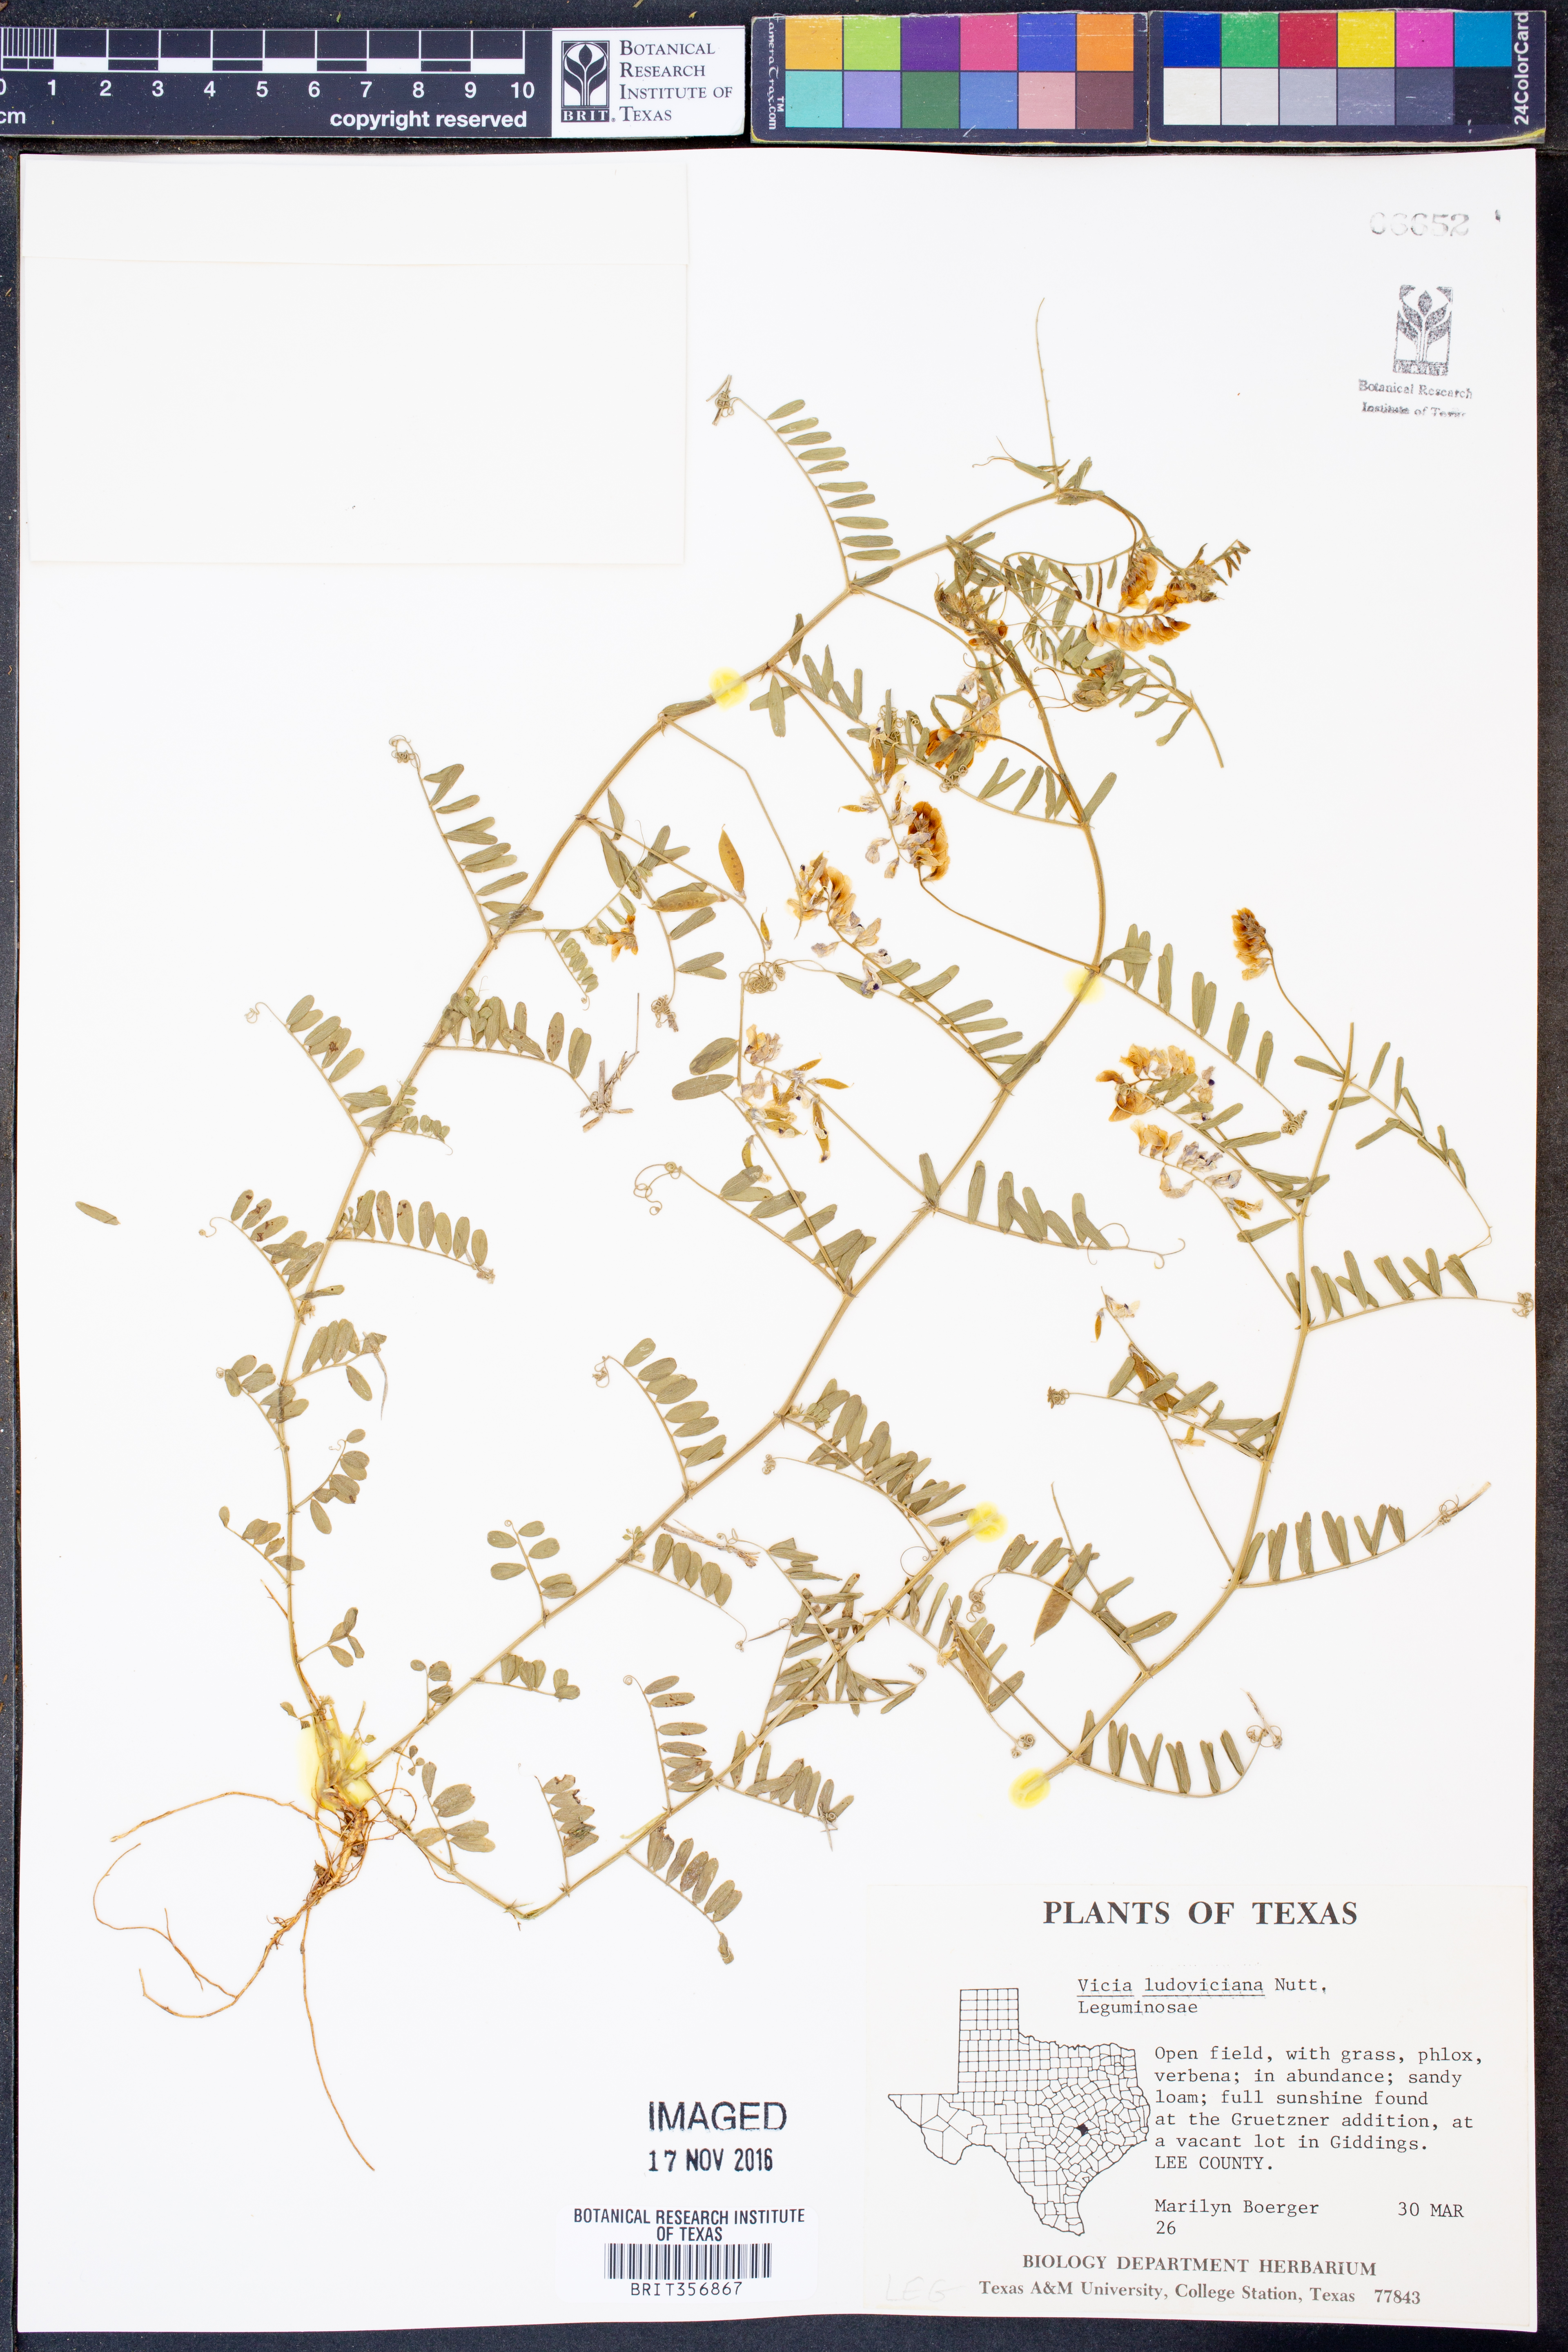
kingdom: Plantae
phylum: Tracheophyta
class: Magnoliopsida
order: Fabales
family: Fabaceae
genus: Vicia
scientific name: Vicia ludoviciana
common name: Louisiana vetch
